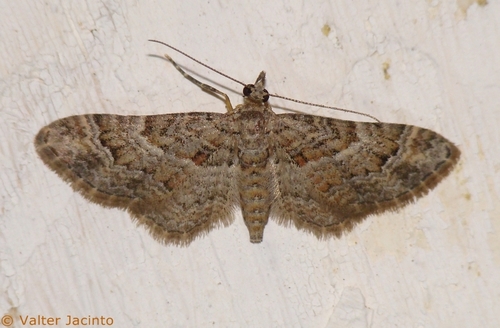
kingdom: Animalia
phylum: Arthropoda
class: Insecta
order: Lepidoptera
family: Geometridae
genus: Gymnoscelis
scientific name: Gymnoscelis rufifasciata
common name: Double-striped pug
